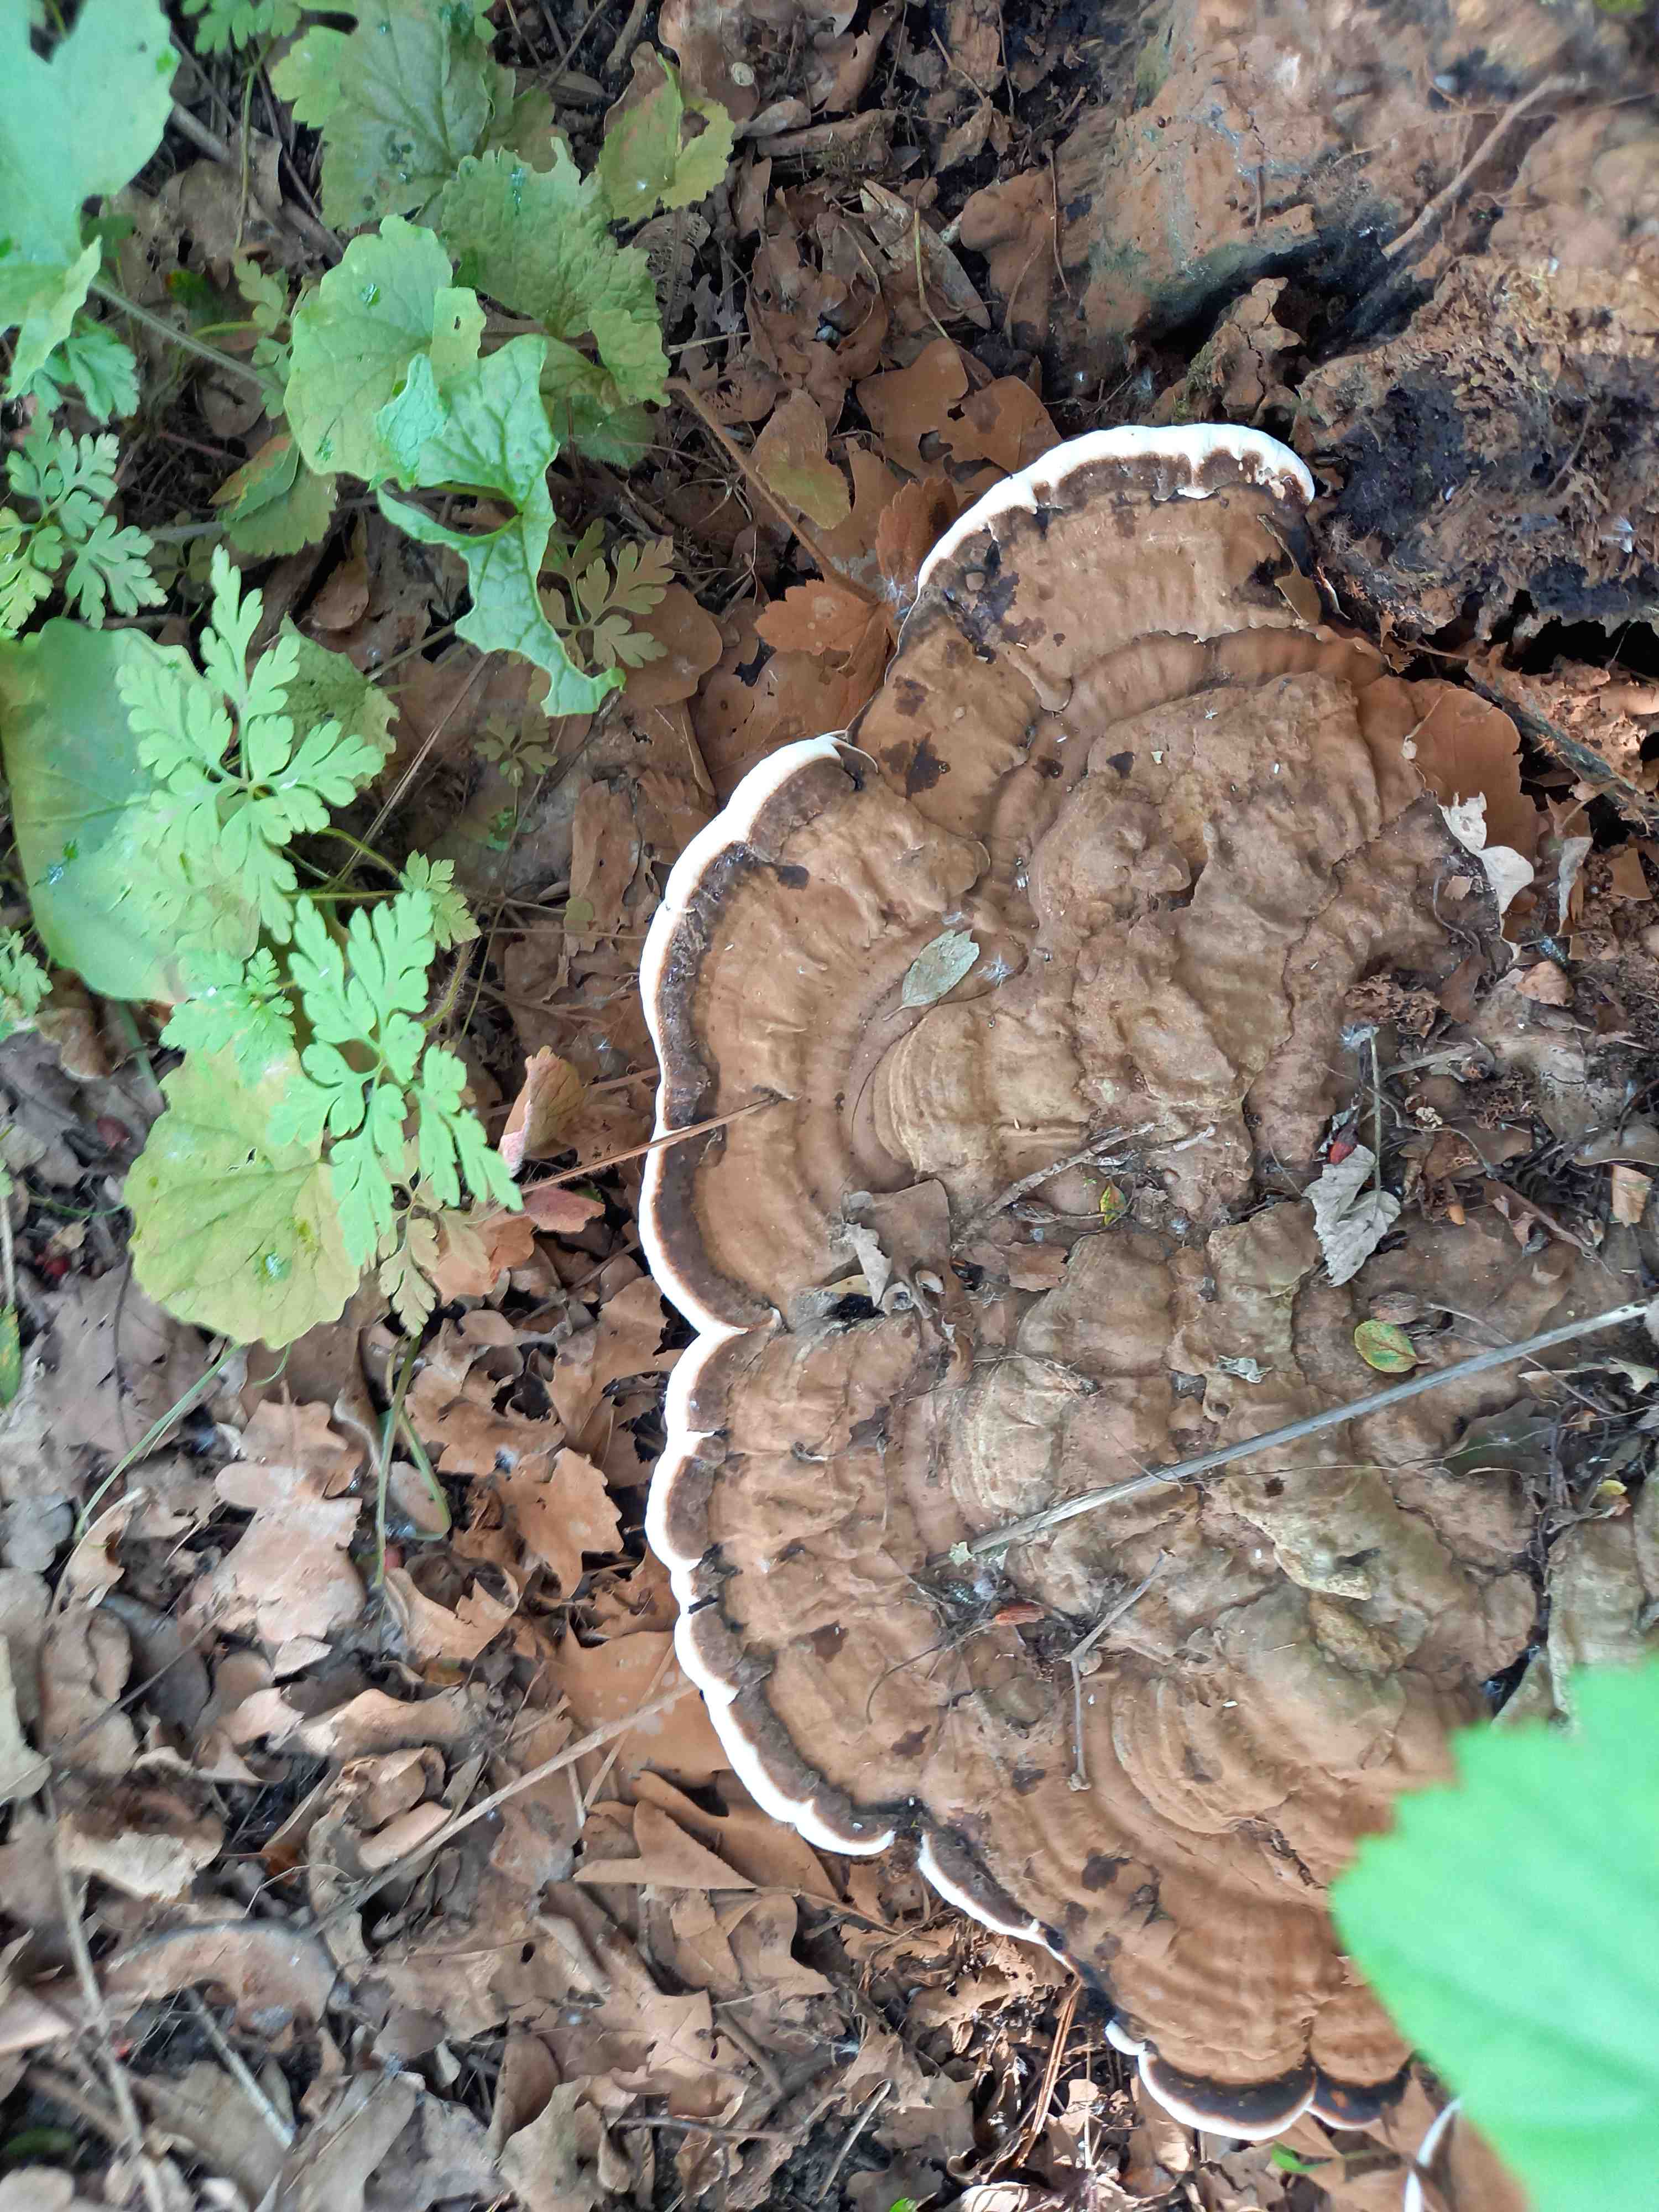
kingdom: Fungi
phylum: Basidiomycota
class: Agaricomycetes
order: Polyporales
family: Polyporaceae
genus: Ganoderma
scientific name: Ganoderma applanatum
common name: flad lakporesvamp
